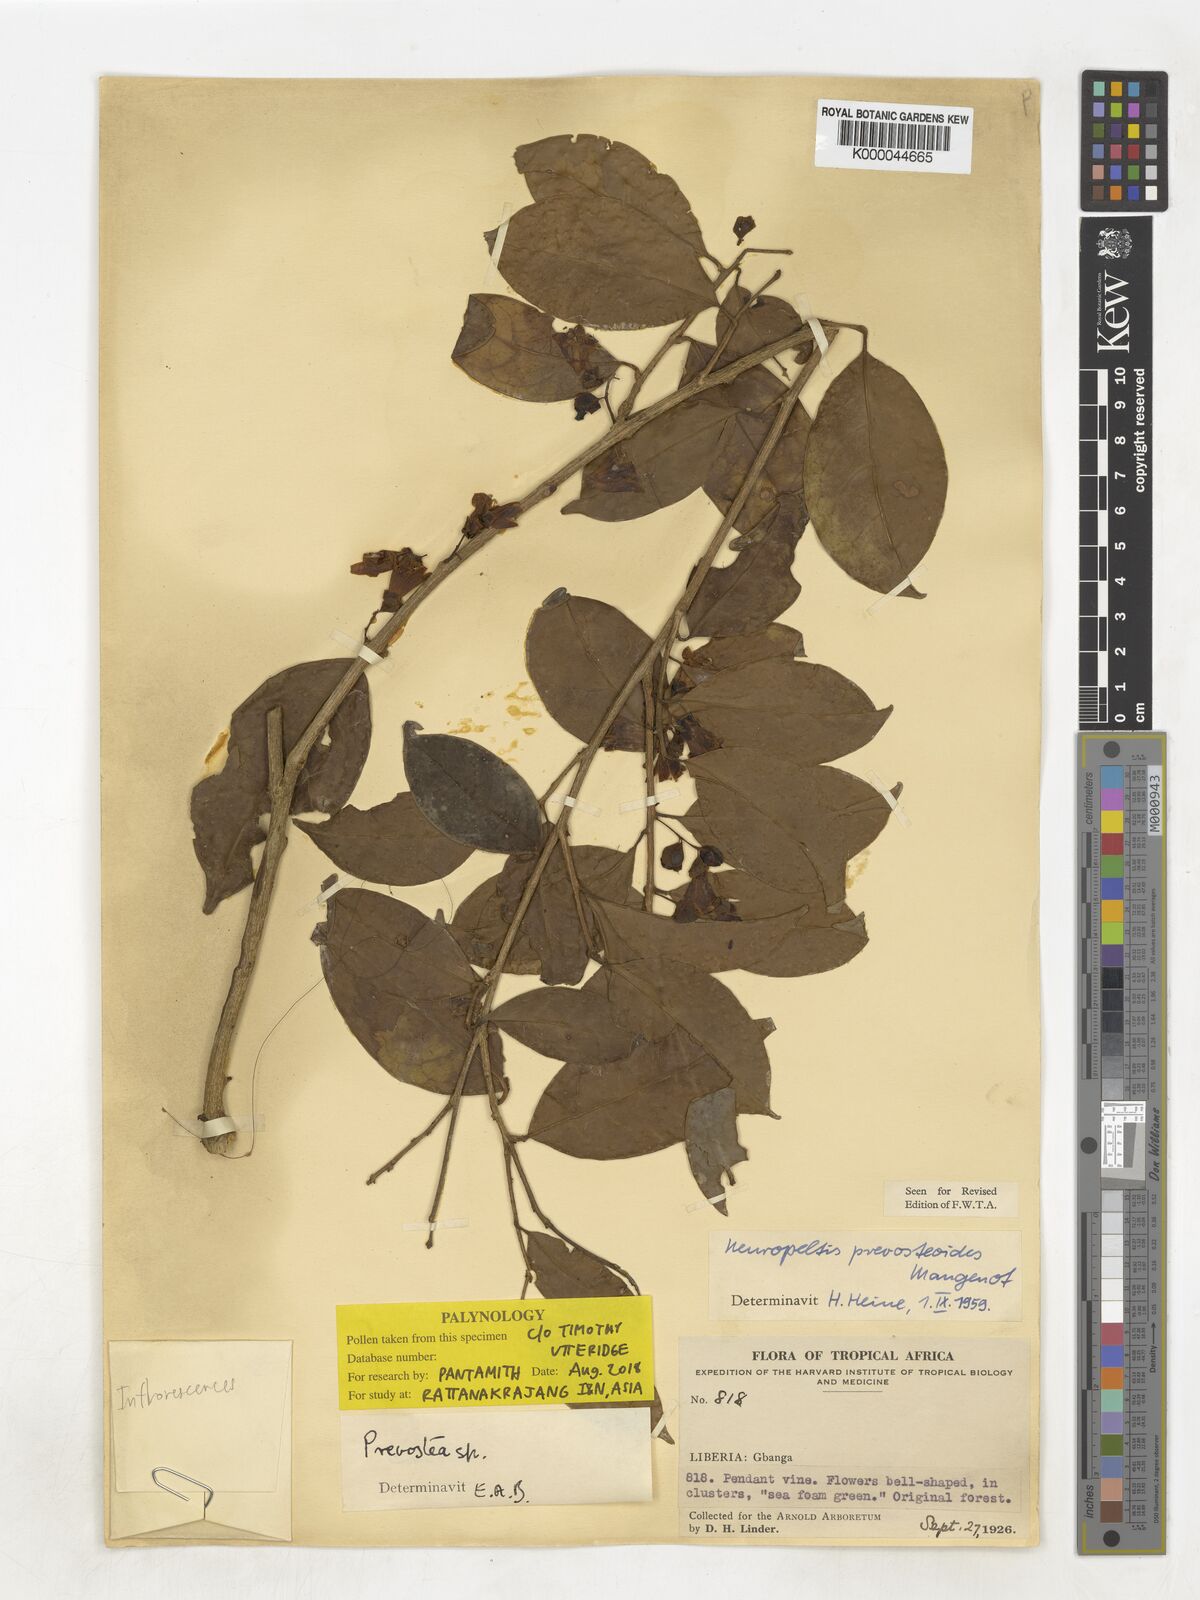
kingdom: Plantae
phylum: Tracheophyta
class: Magnoliopsida
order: Solanales
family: Convolvulaceae
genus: Neuropeltis
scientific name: Neuropeltis prevosteoides
